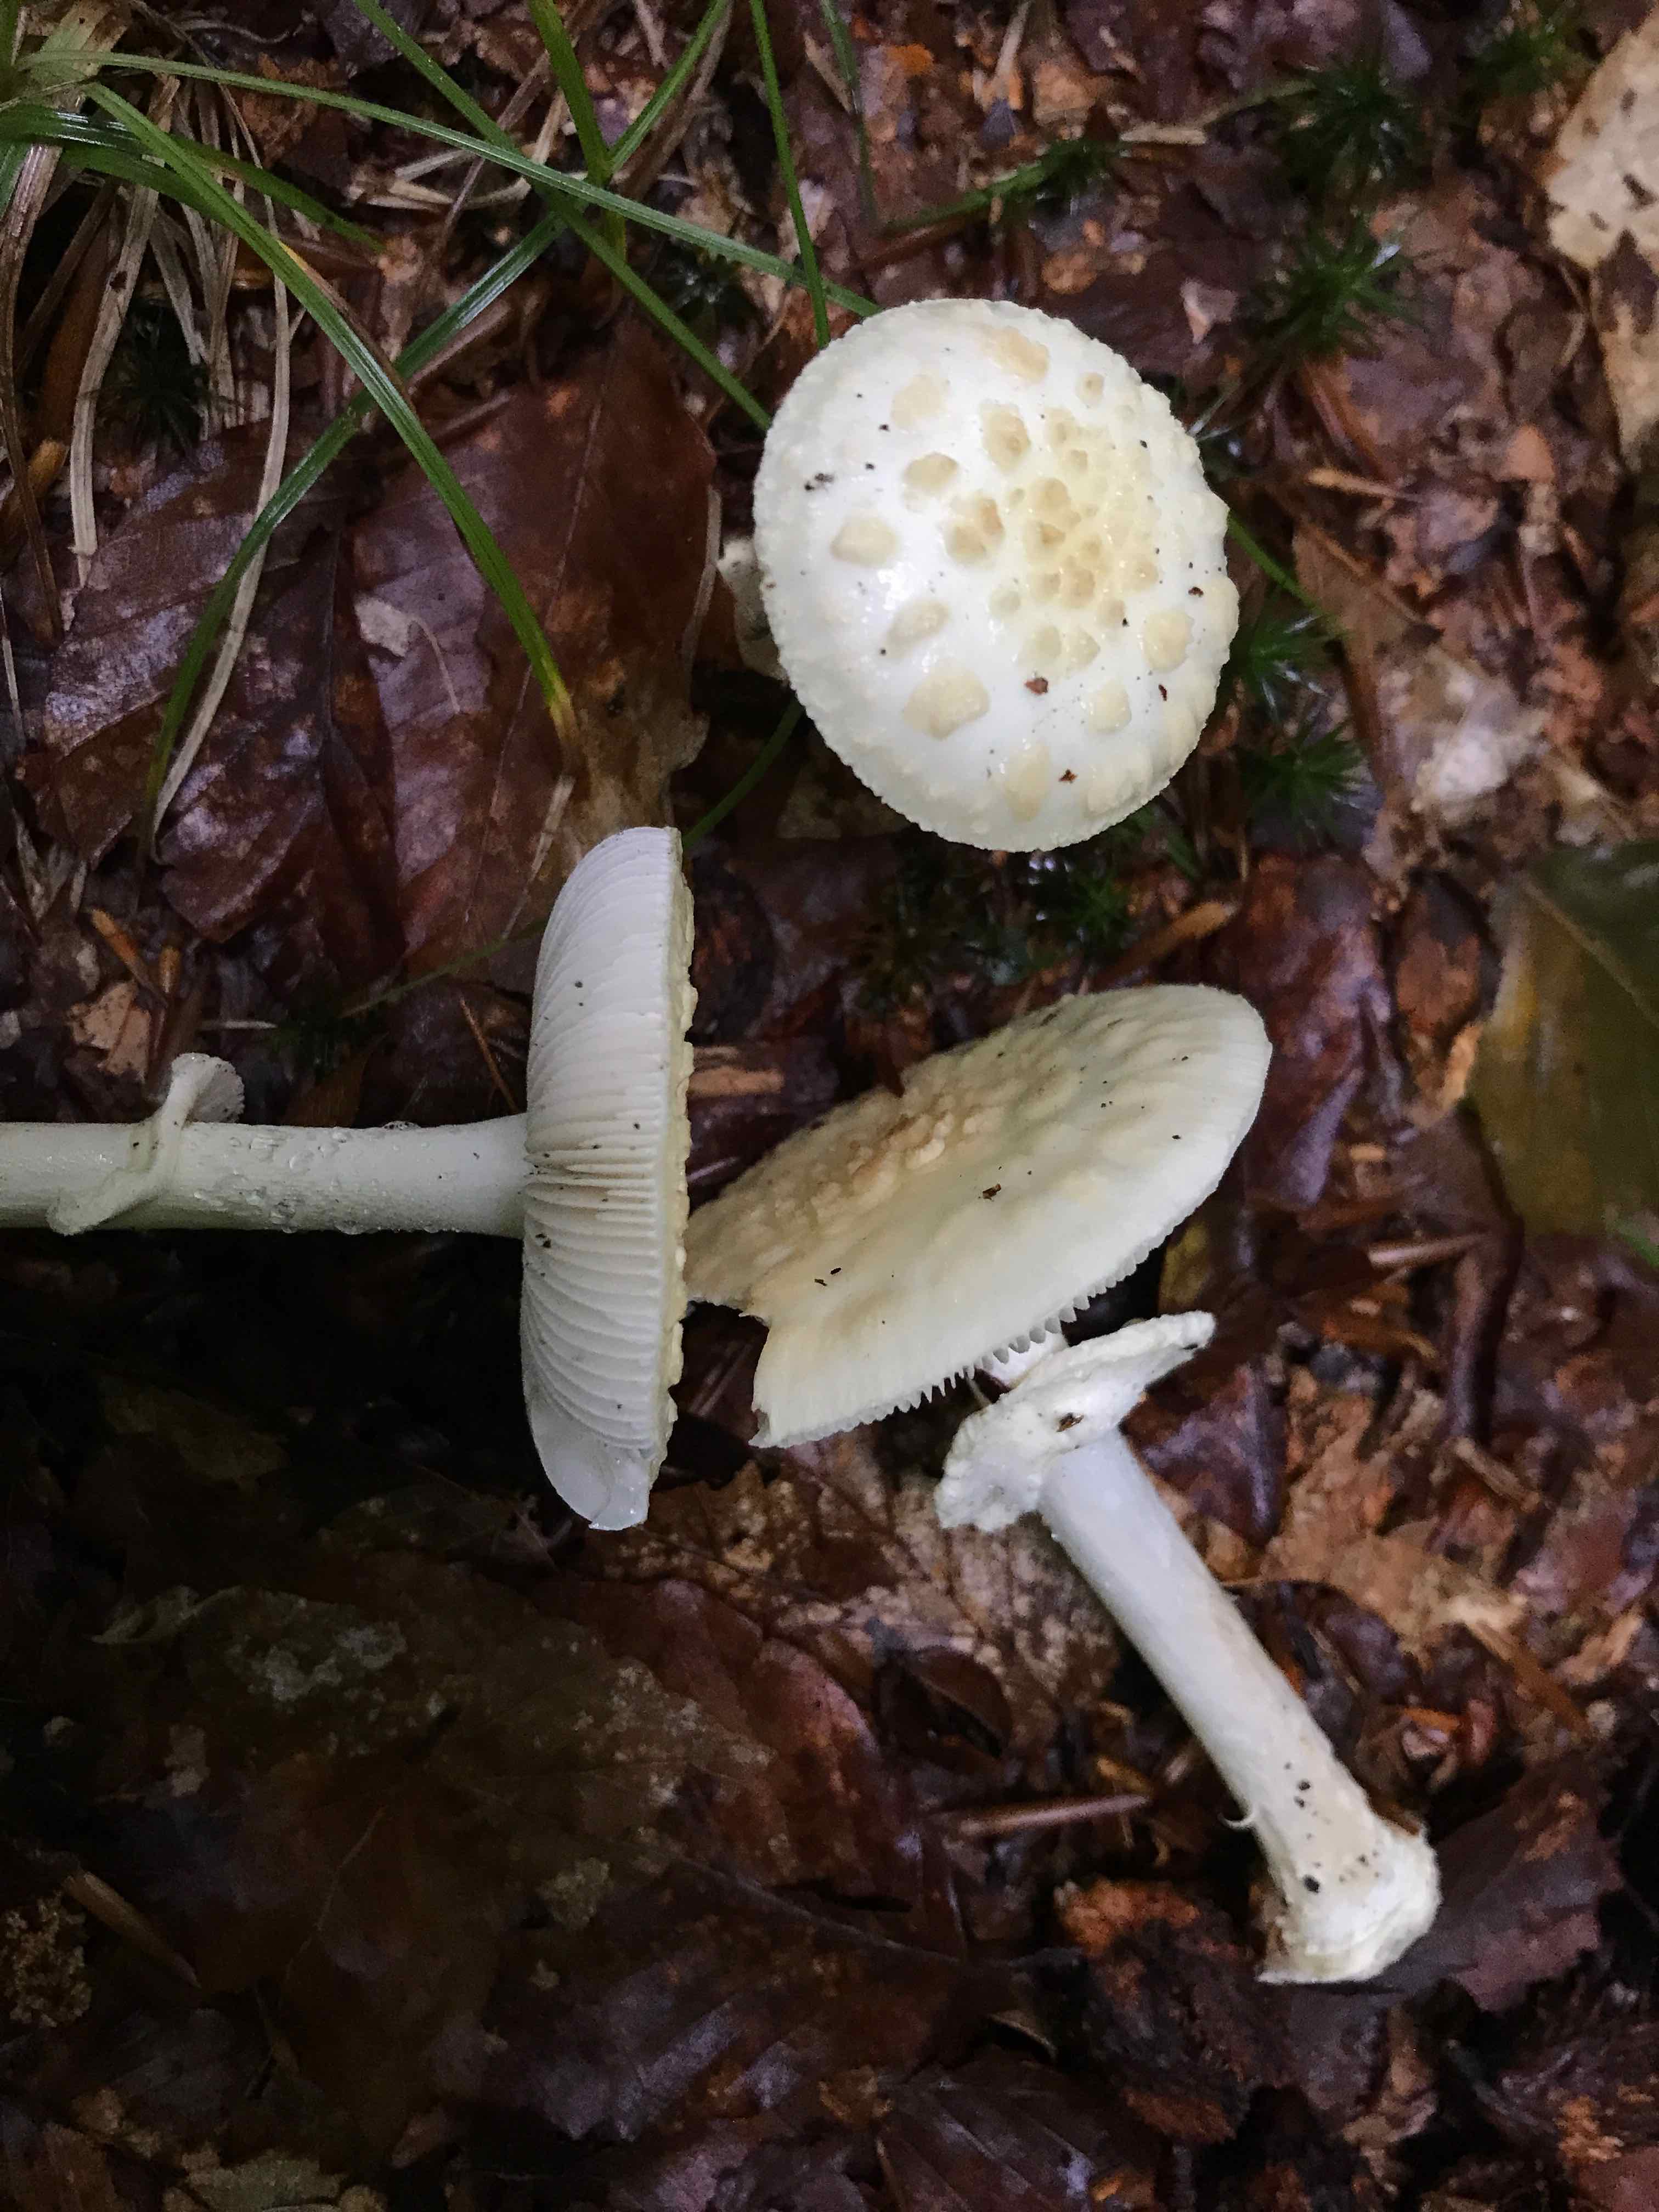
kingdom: Fungi
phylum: Basidiomycota
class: Agaricomycetes
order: Agaricales
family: Amanitaceae
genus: Amanita
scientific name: Amanita citrina
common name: kugleknoldet fluesvamp
